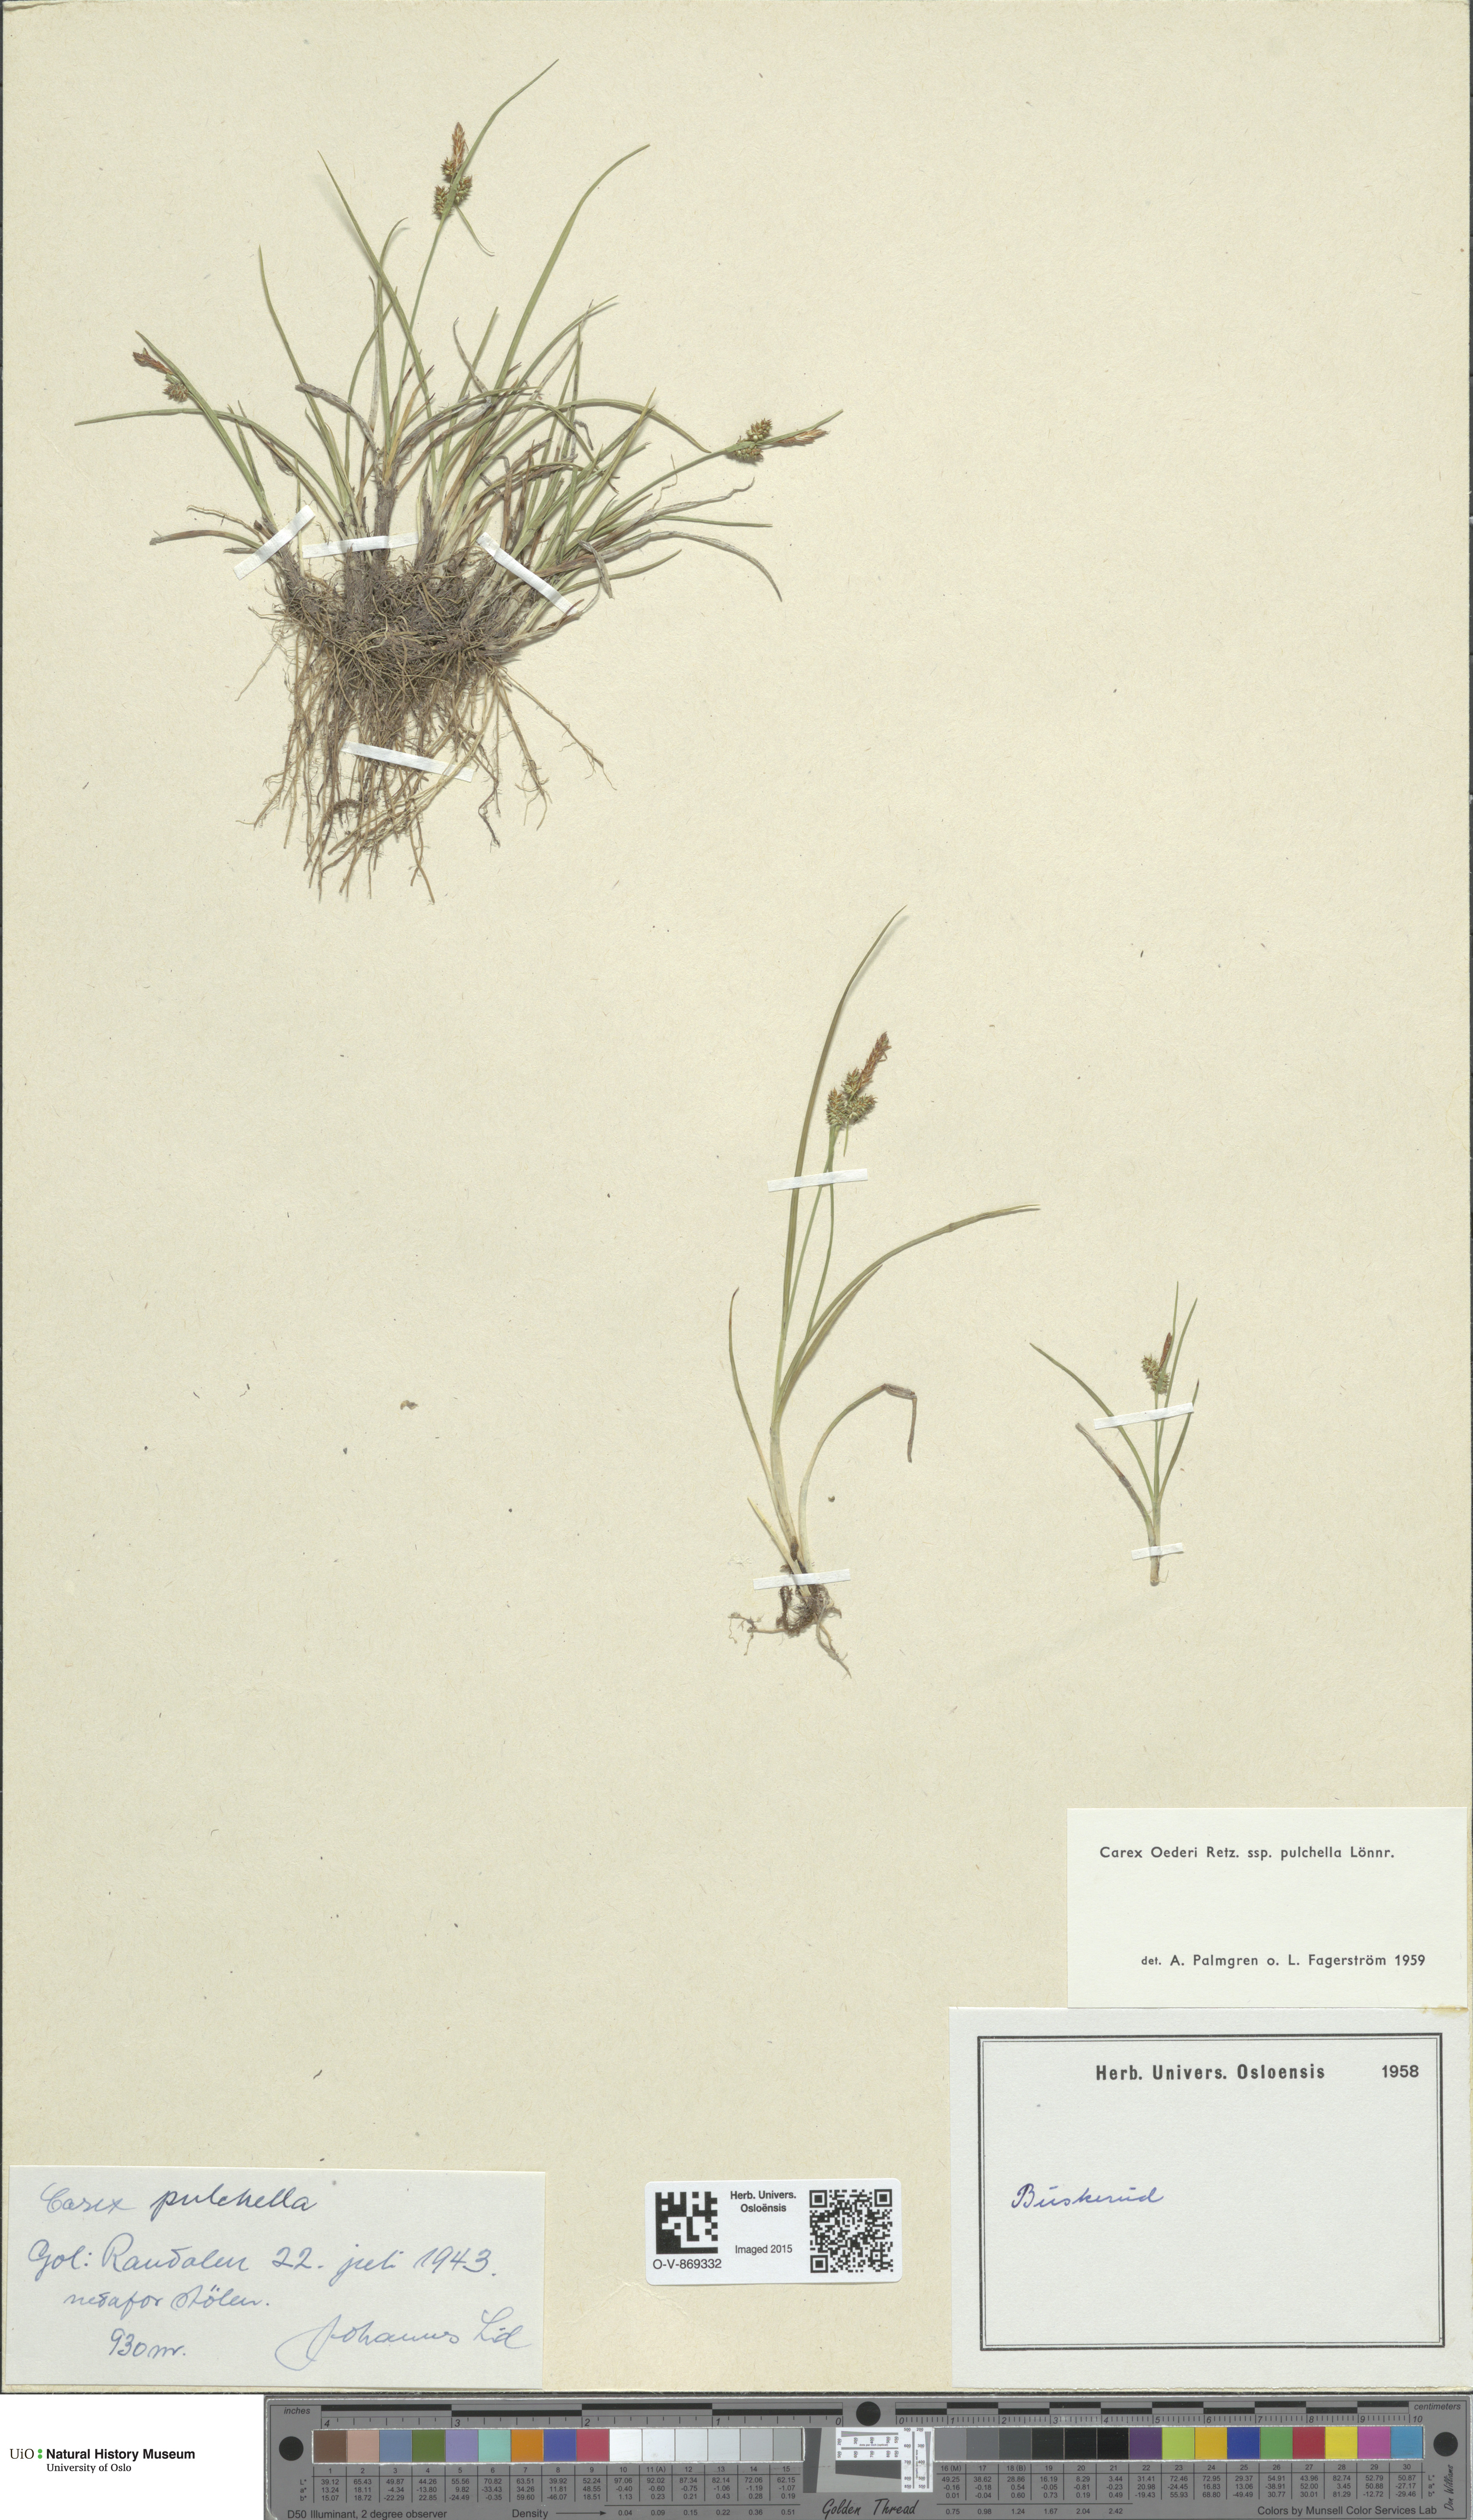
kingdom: Plantae
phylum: Tracheophyta
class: Liliopsida
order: Poales
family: Cyperaceae
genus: Carex
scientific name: Carex oederi
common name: Common & small-fruited yellow-sedge
